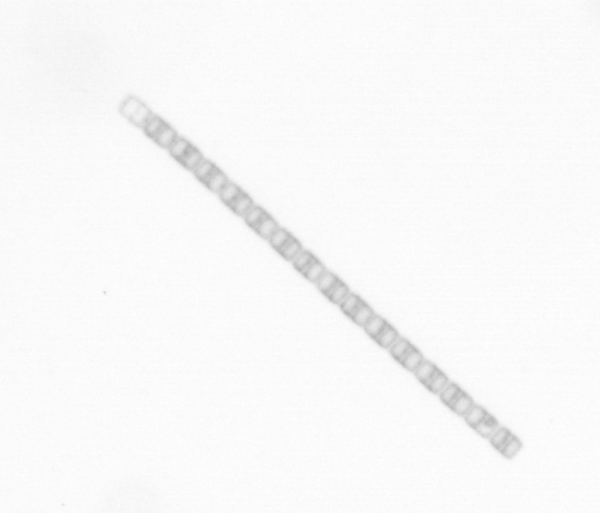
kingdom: Chromista
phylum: Ochrophyta
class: Bacillariophyceae
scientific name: Bacillariophyceae
